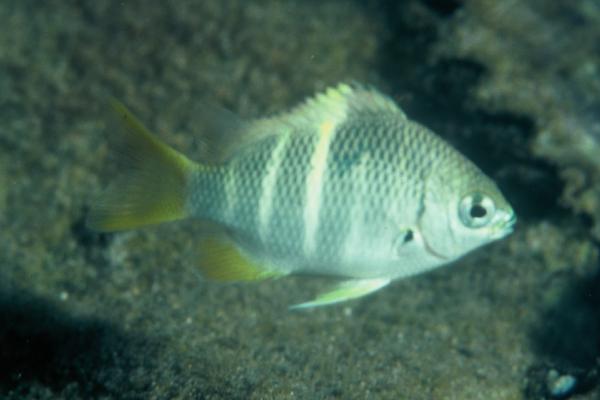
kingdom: Animalia
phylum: Chordata
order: Perciformes
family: Pomacentridae
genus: Abudefduf
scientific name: Abudefduf notatus
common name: Yellow-tail sergeant
